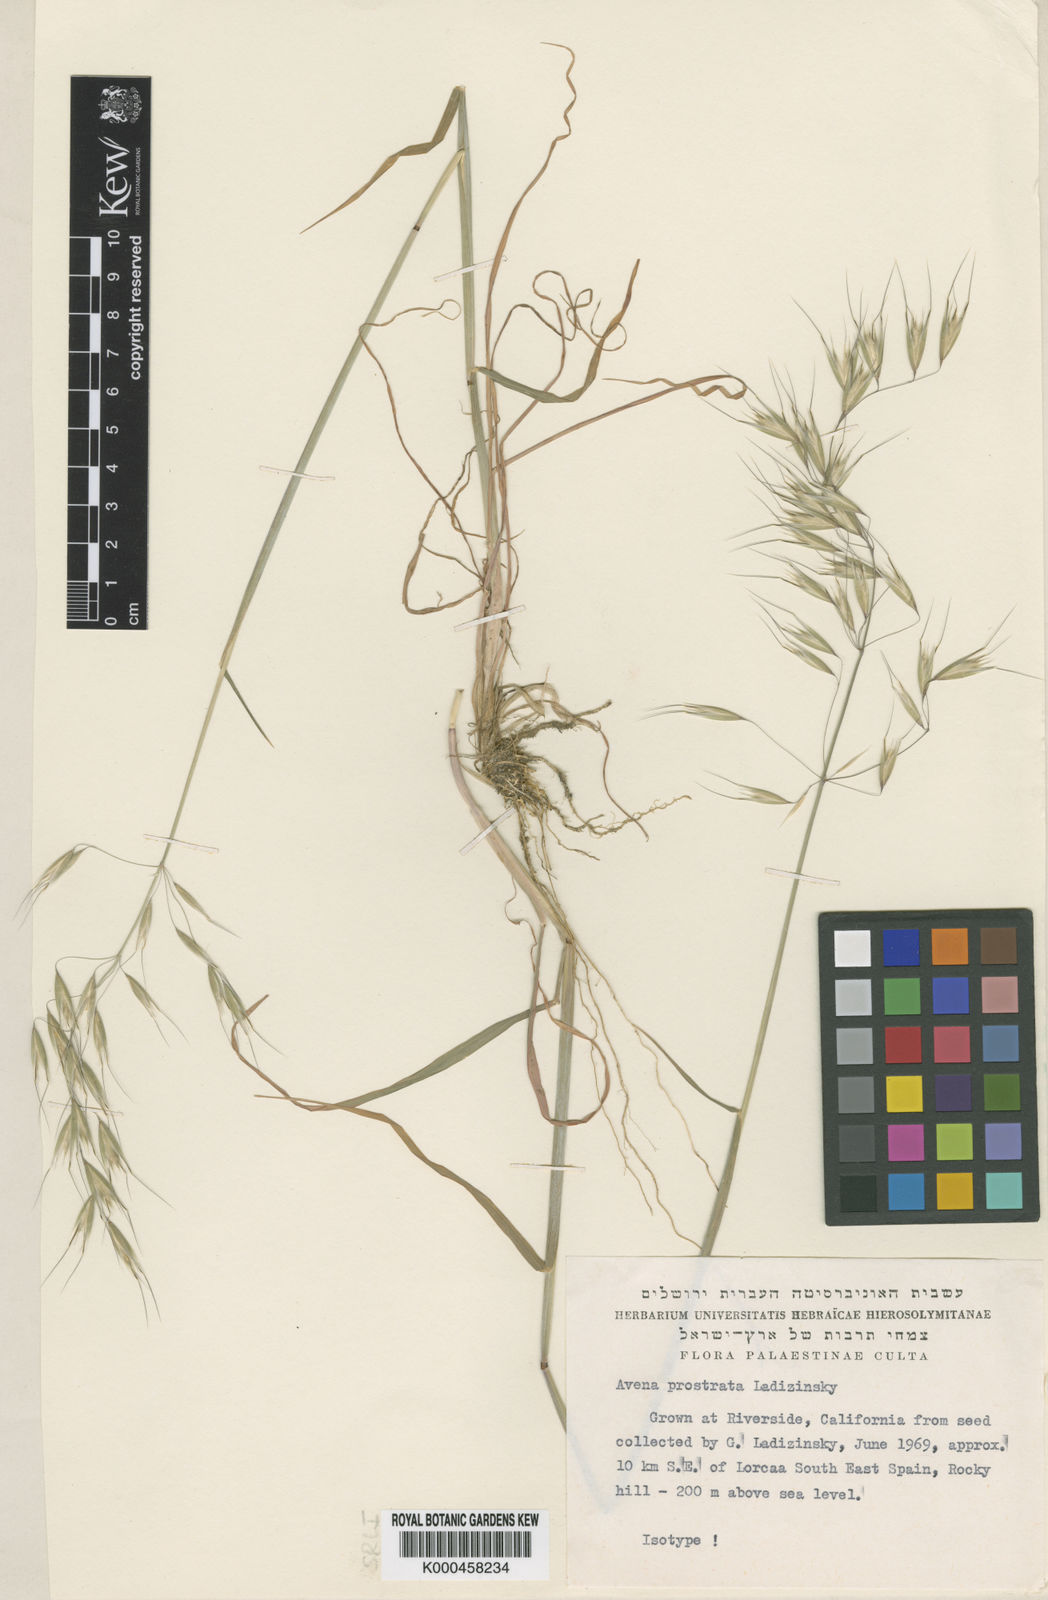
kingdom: Plantae
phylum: Tracheophyta
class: Liliopsida
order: Poales
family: Poaceae
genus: Avena
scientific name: Avena prostrata
